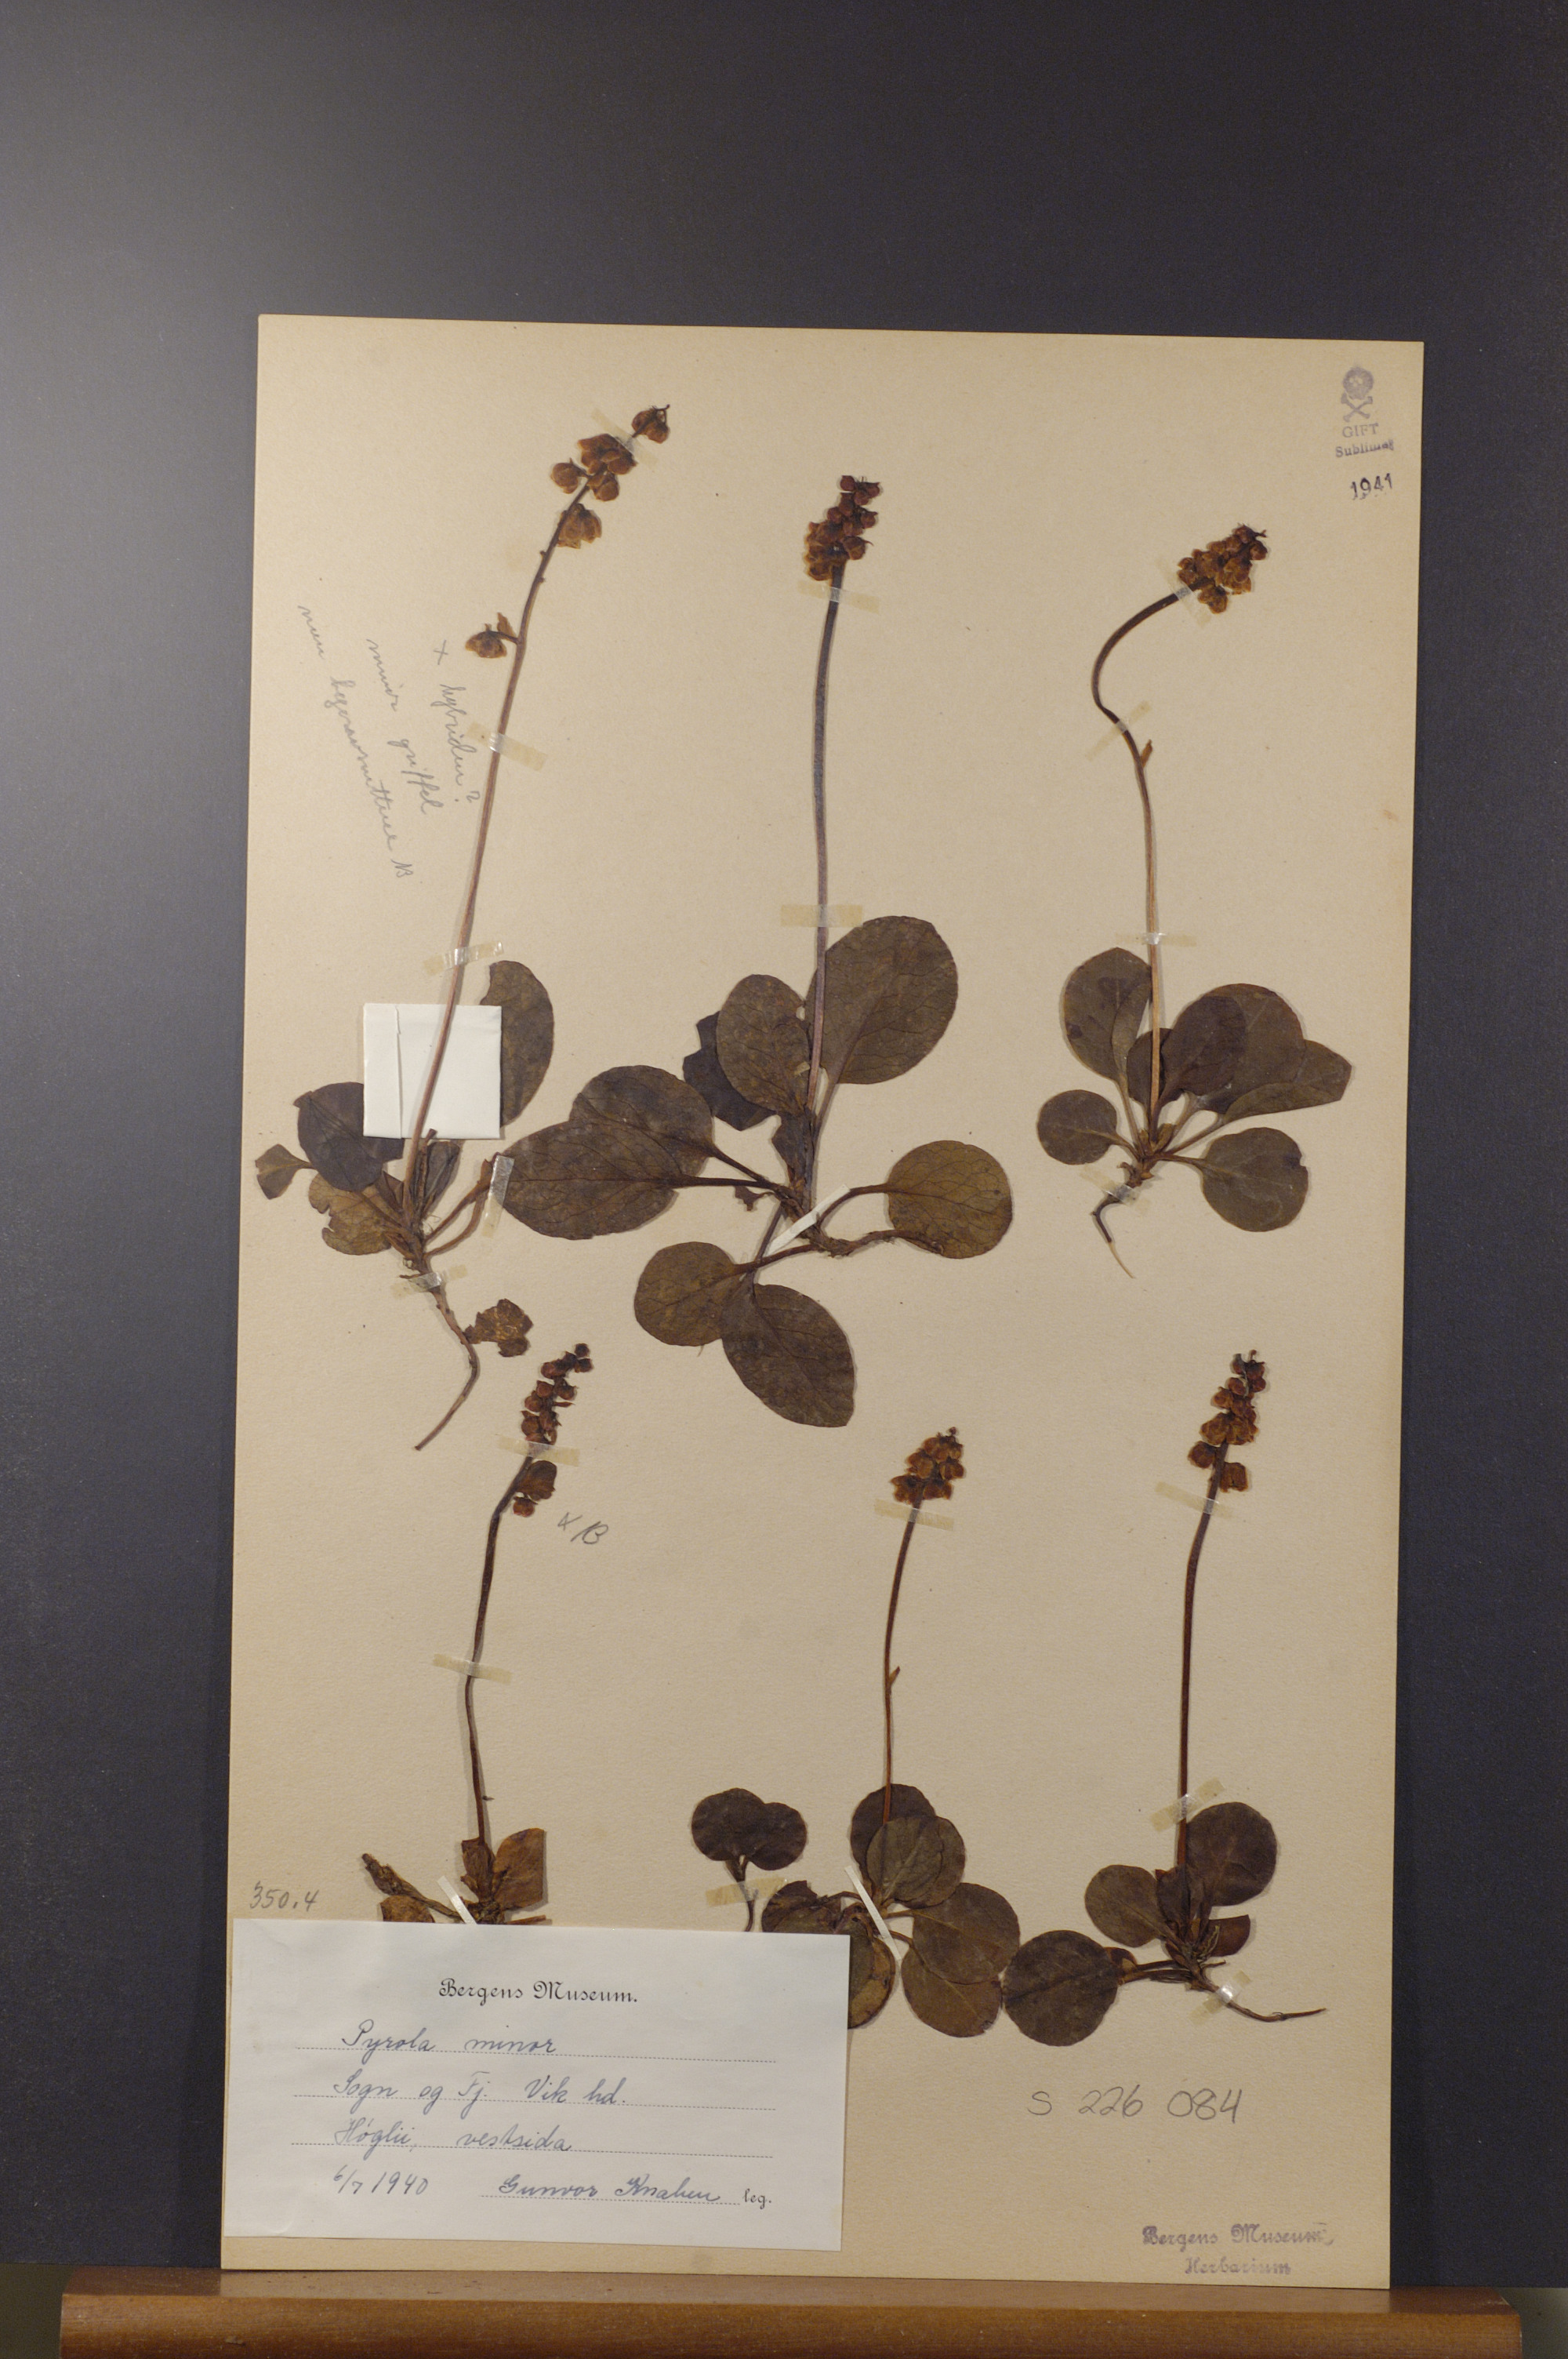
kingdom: Plantae
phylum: Tracheophyta
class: Magnoliopsida
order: Ericales
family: Ericaceae
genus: Pyrola
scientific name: Pyrola minor
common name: Common wintergreen
